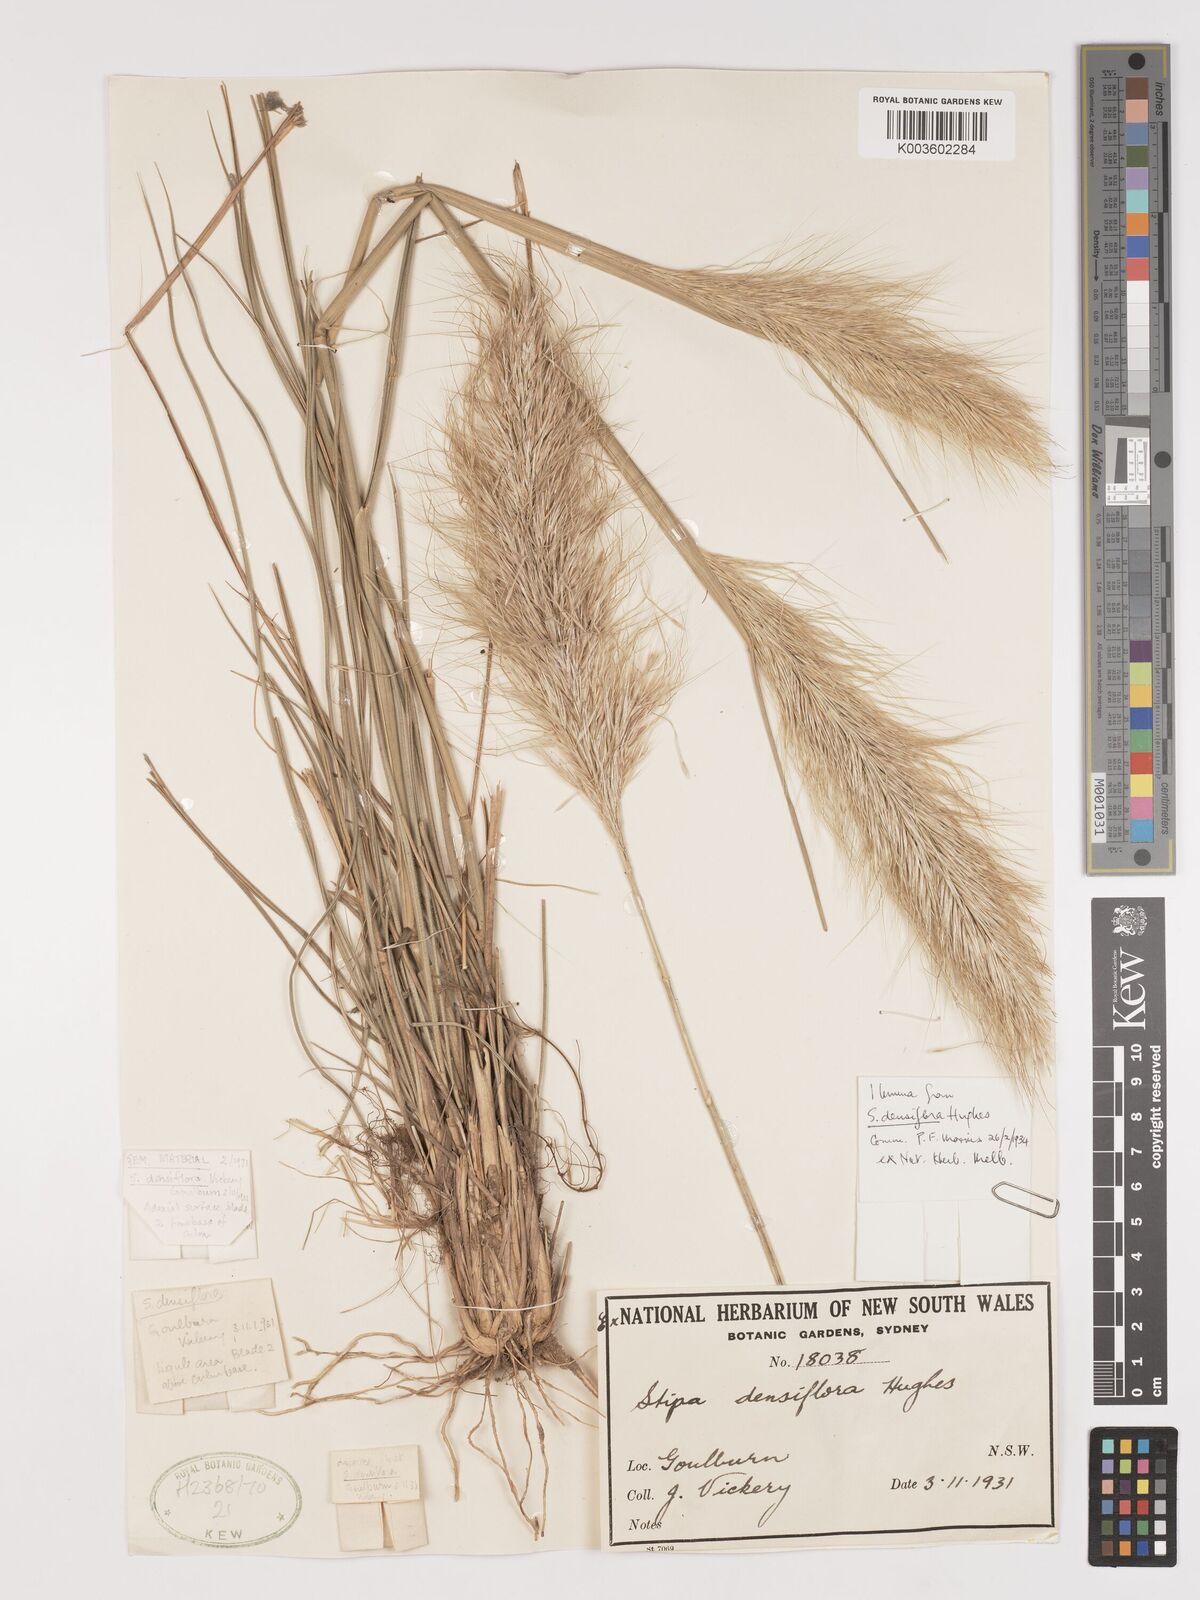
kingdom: Plantae
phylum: Tracheophyta
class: Liliopsida
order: Poales
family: Poaceae
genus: Stipa
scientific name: Stipa
